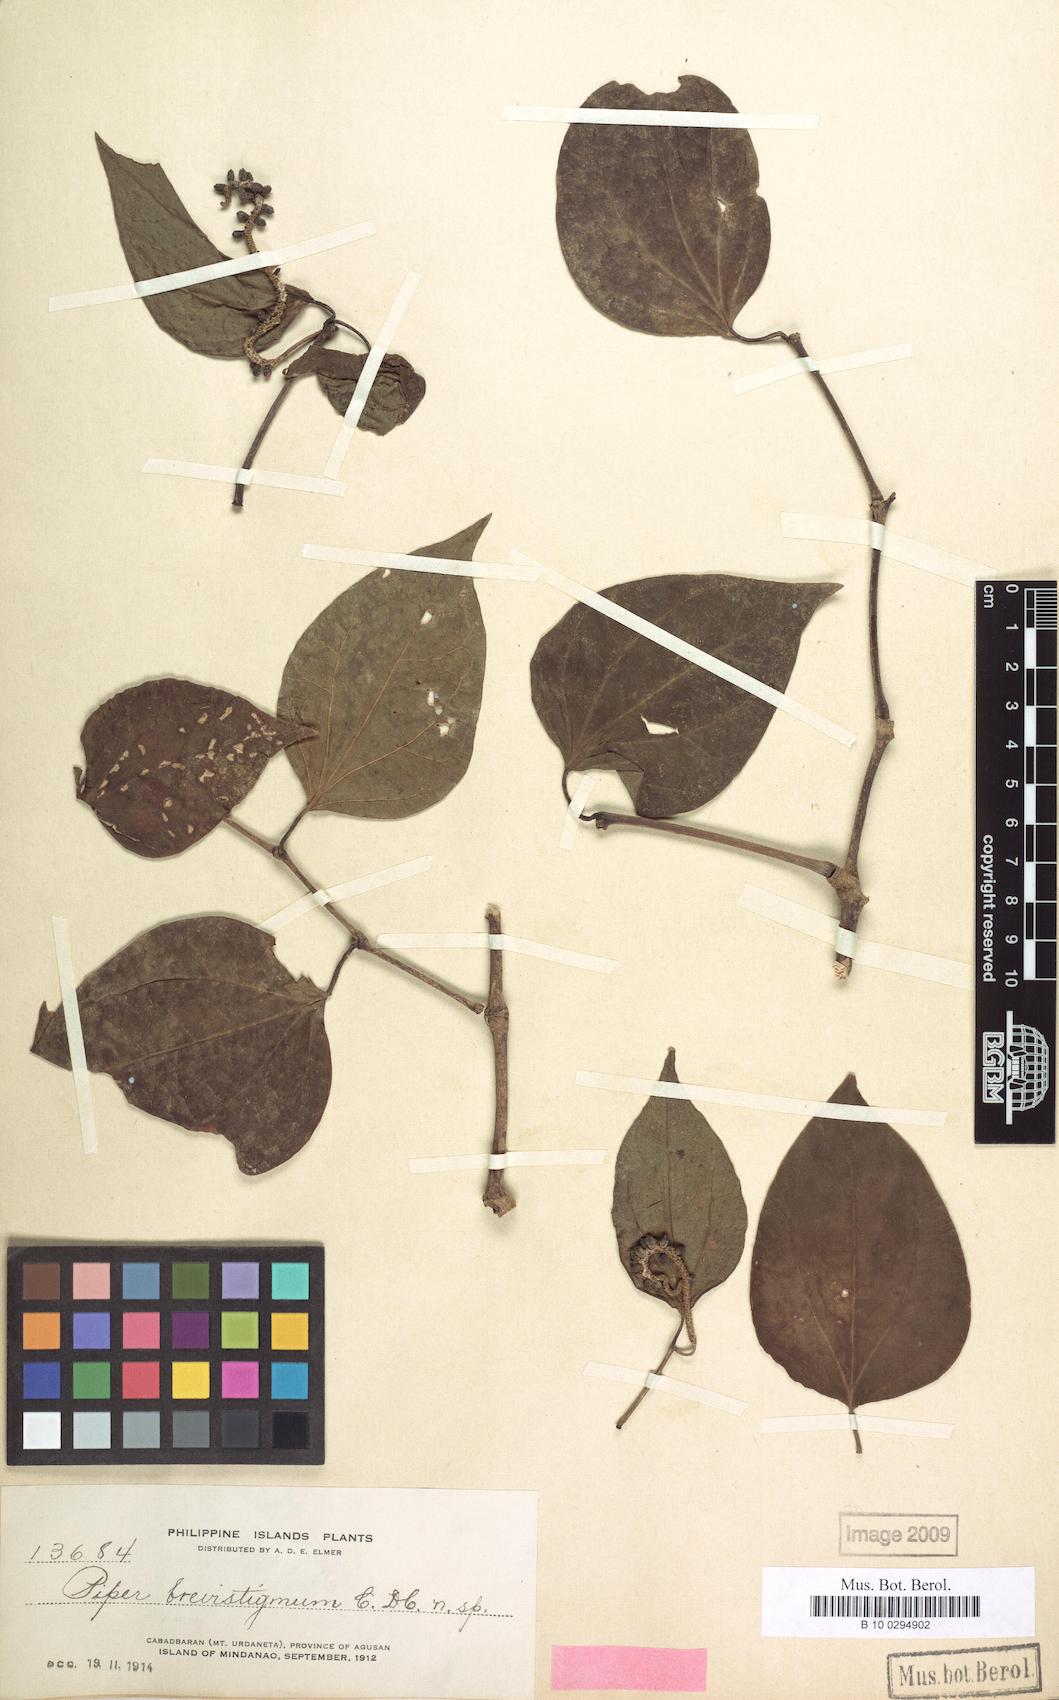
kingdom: Plantae
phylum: Tracheophyta
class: Magnoliopsida
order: Piperales
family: Piperaceae
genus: Piper
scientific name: Piper brevistigmum
